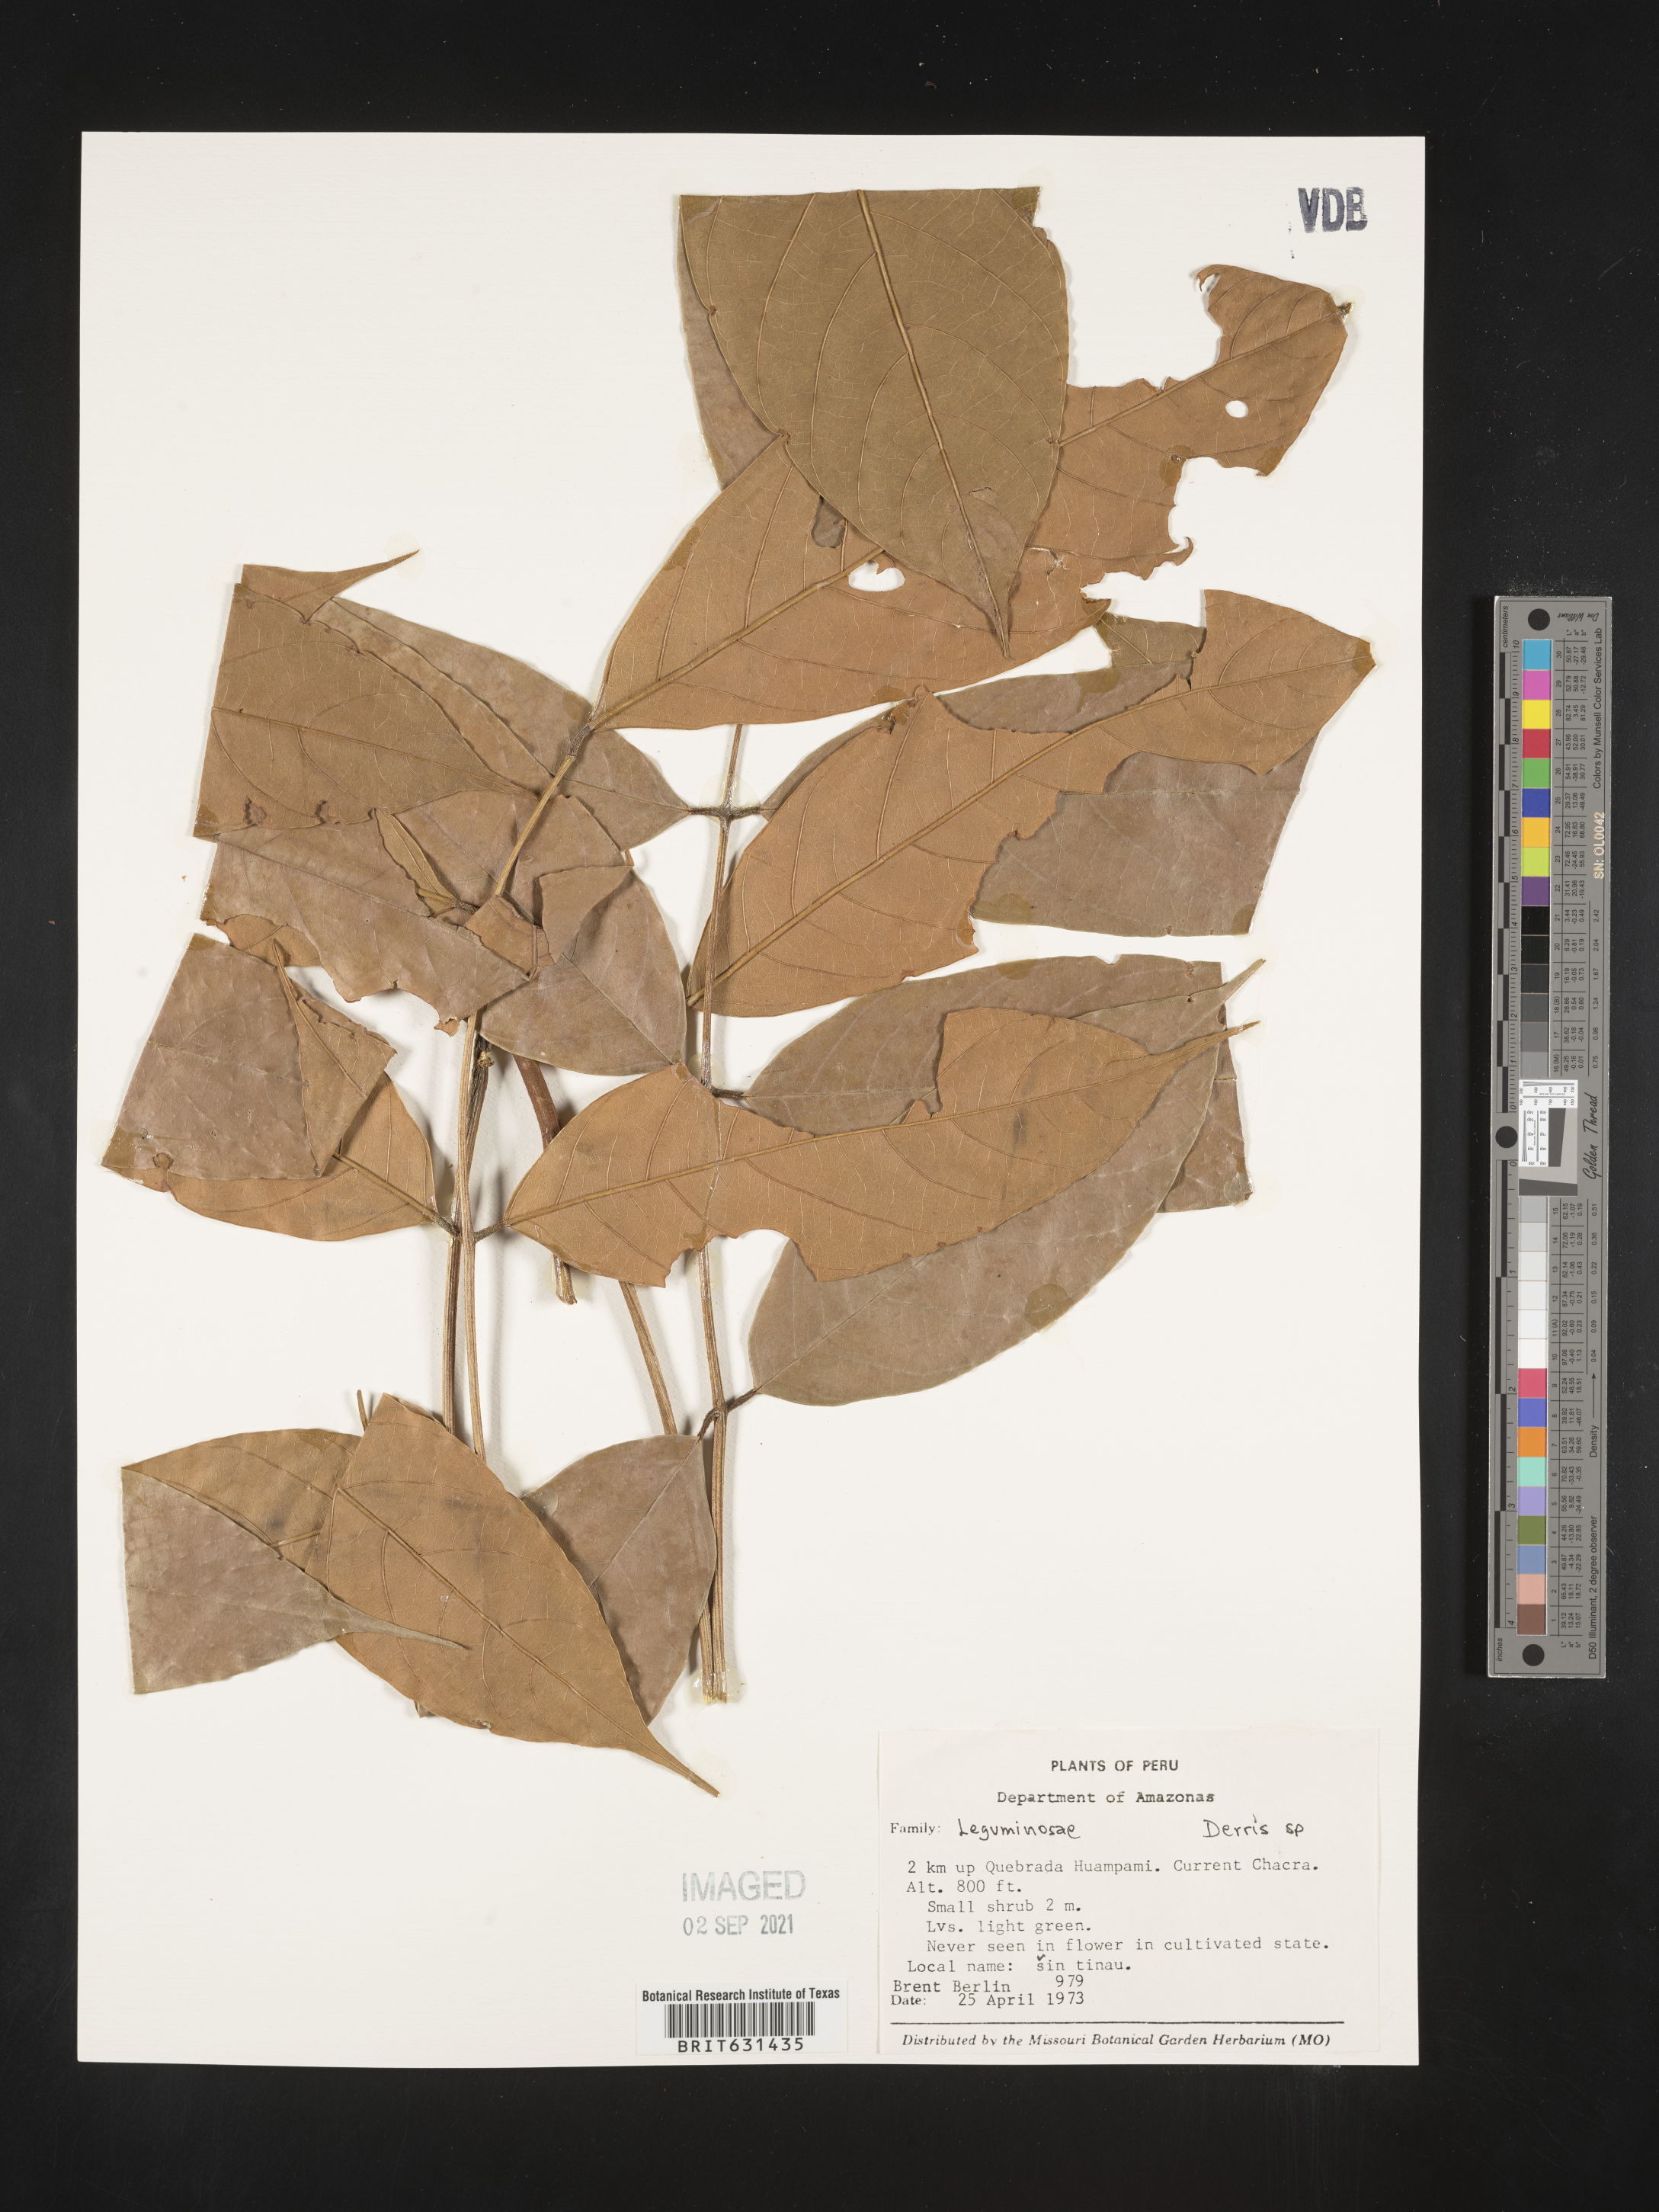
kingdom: Plantae
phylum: Tracheophyta
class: Magnoliopsida
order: Fabales
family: Fabaceae
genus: Derris
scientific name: Derris
